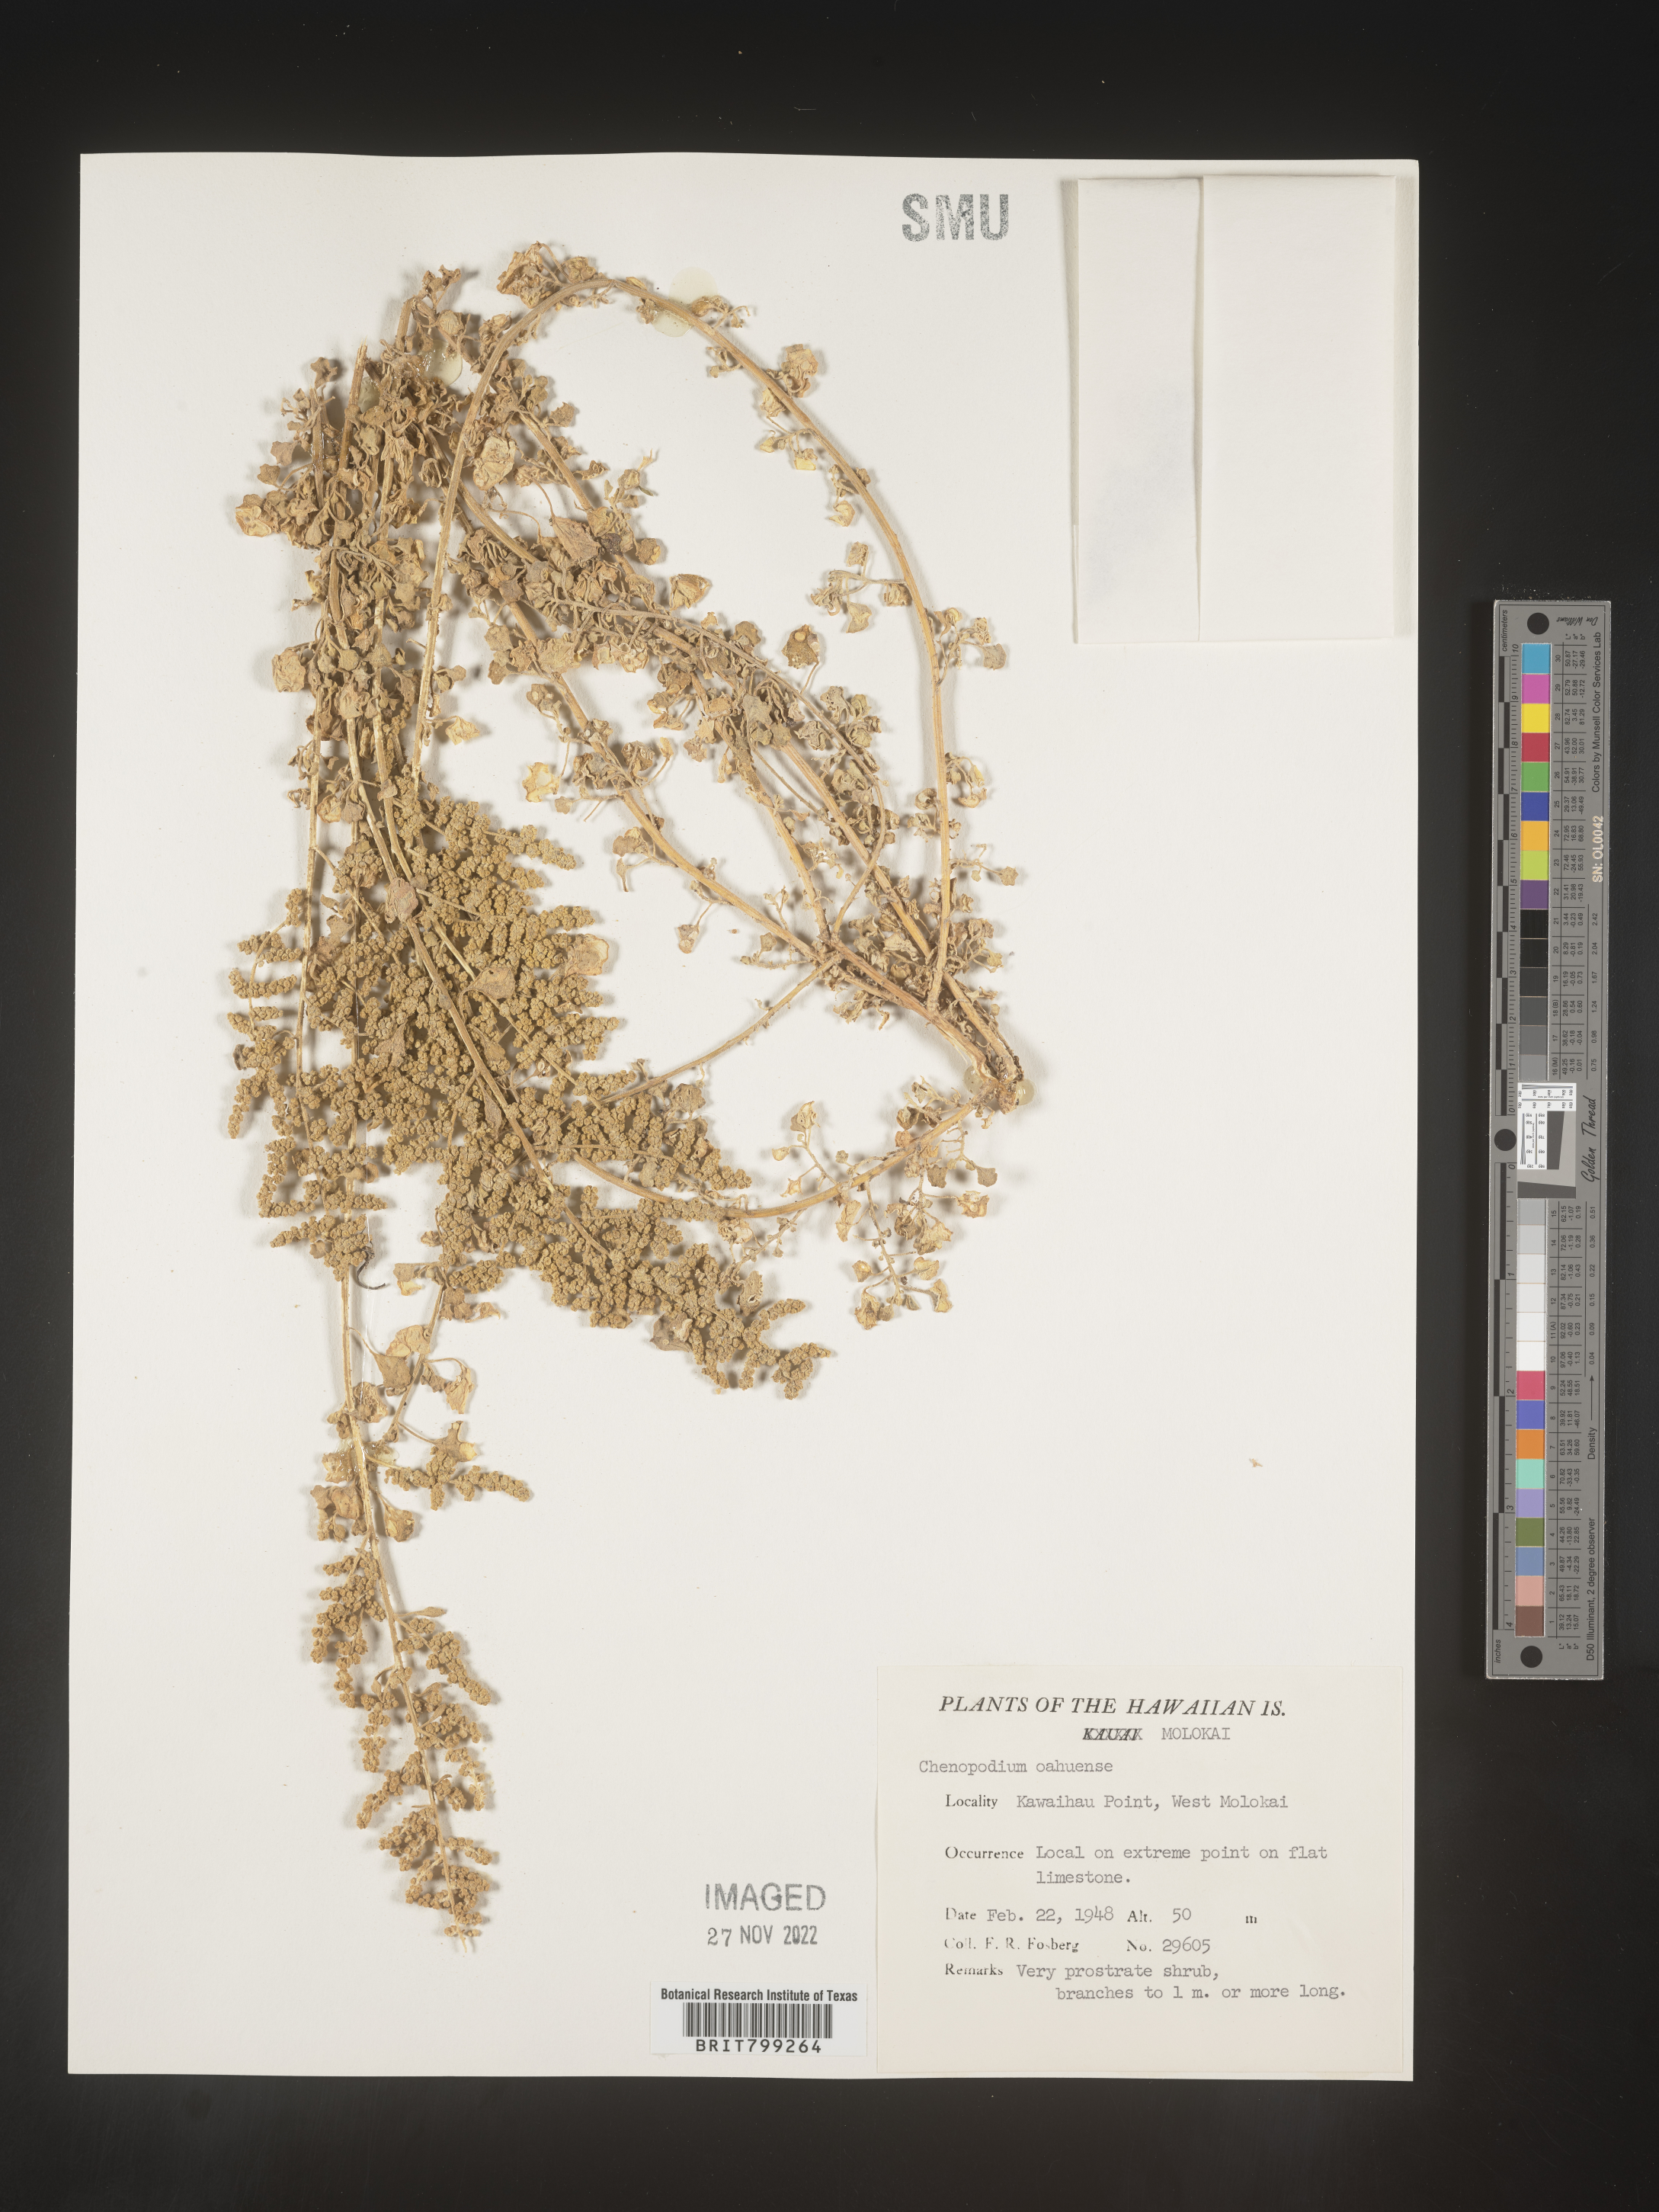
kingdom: Plantae
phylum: Tracheophyta
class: Magnoliopsida
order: Caryophyllales
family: Amaranthaceae
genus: Chenopodium
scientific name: Chenopodium
